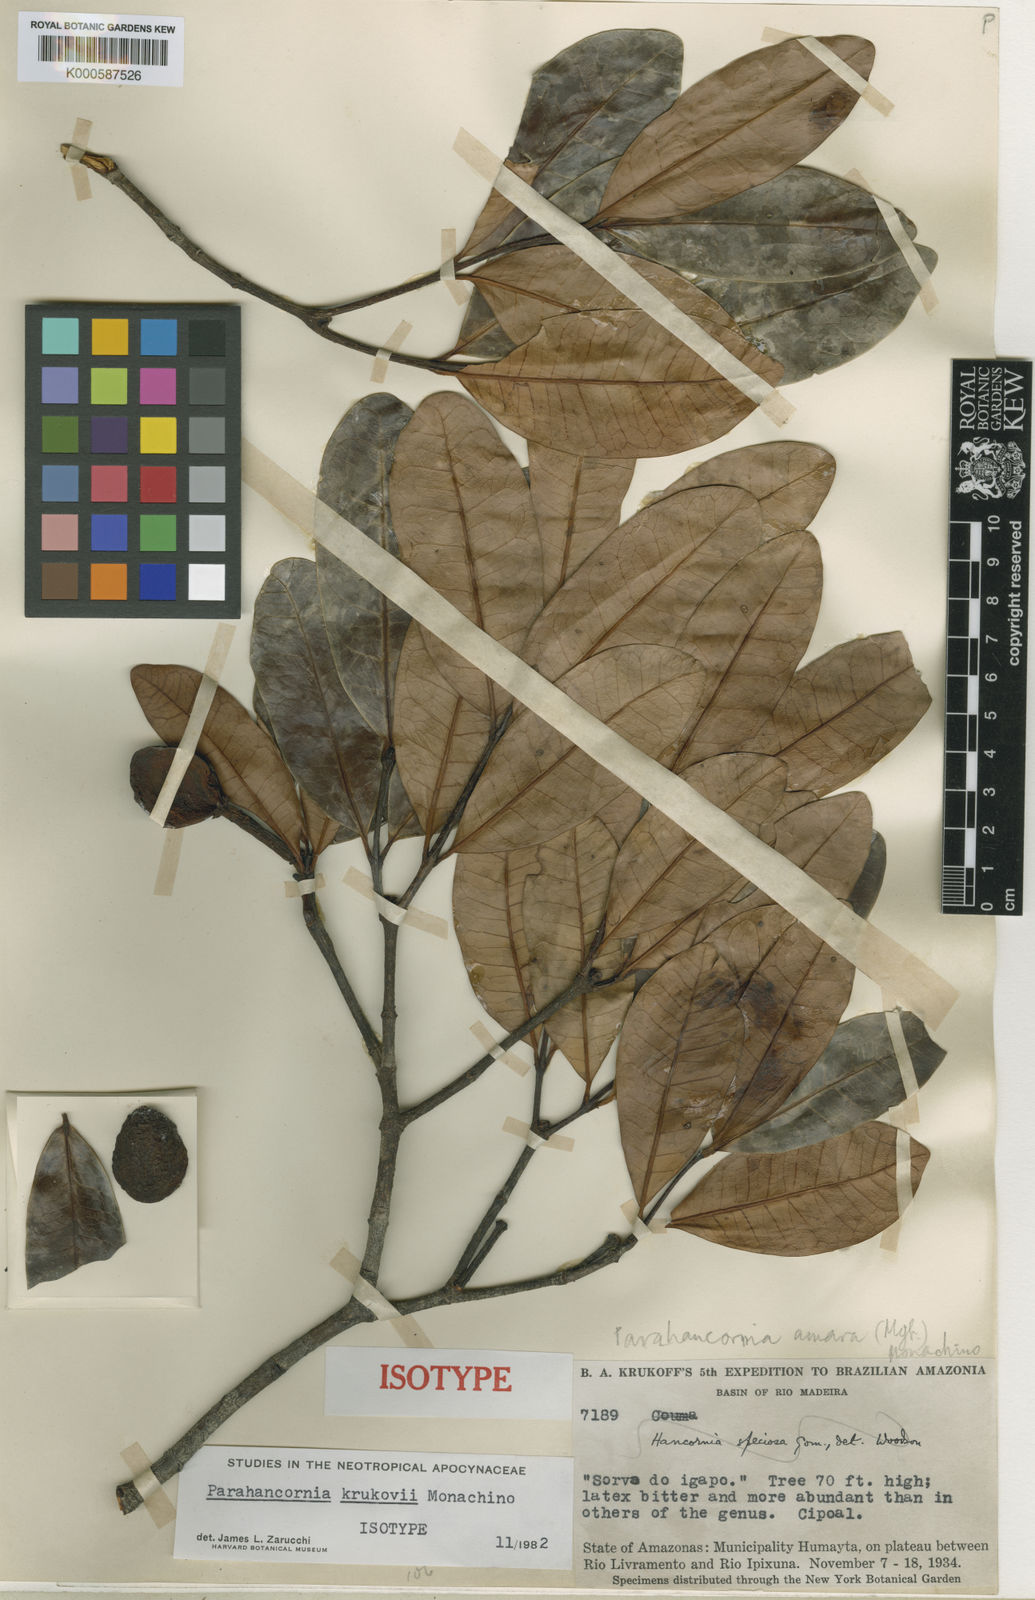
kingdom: Plantae
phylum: Tracheophyta
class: Magnoliopsida
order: Gentianales
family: Apocynaceae
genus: Parahancornia
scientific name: Parahancornia oblonga
